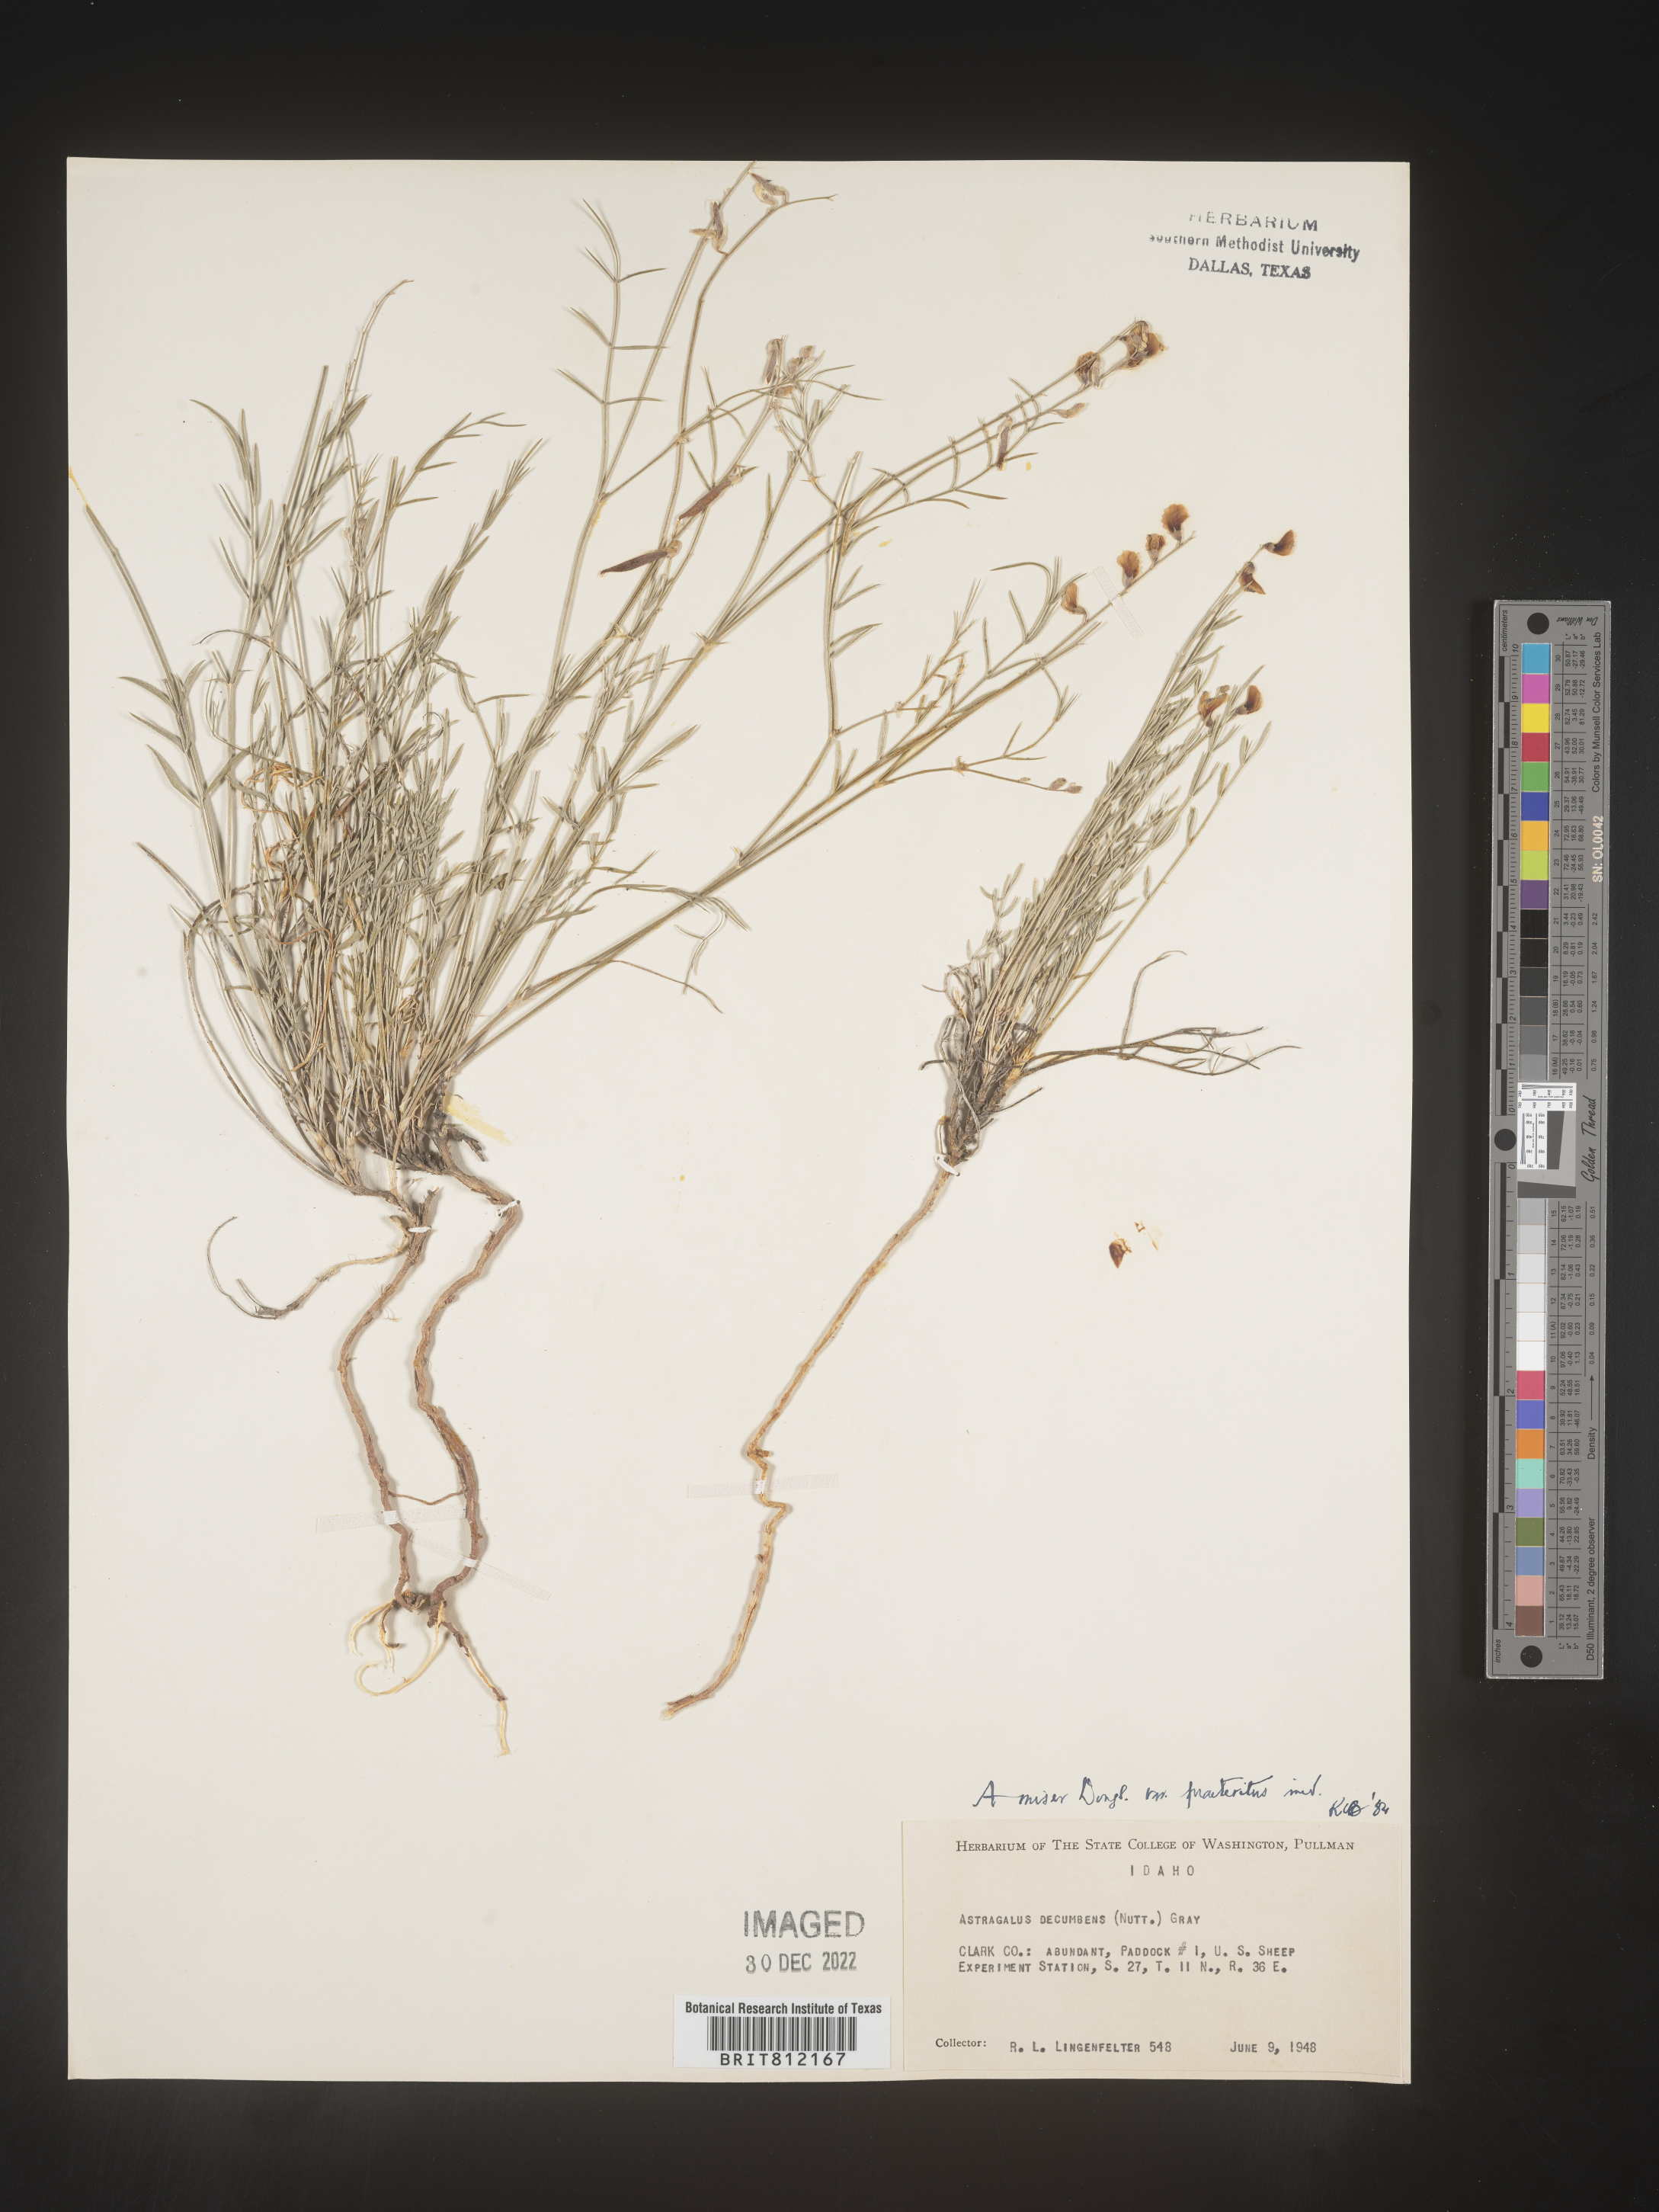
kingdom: Plantae
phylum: Tracheophyta
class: Magnoliopsida
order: Fabales
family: Fabaceae
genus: Astragalus
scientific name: Astragalus miser
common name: Timber milkvetch
